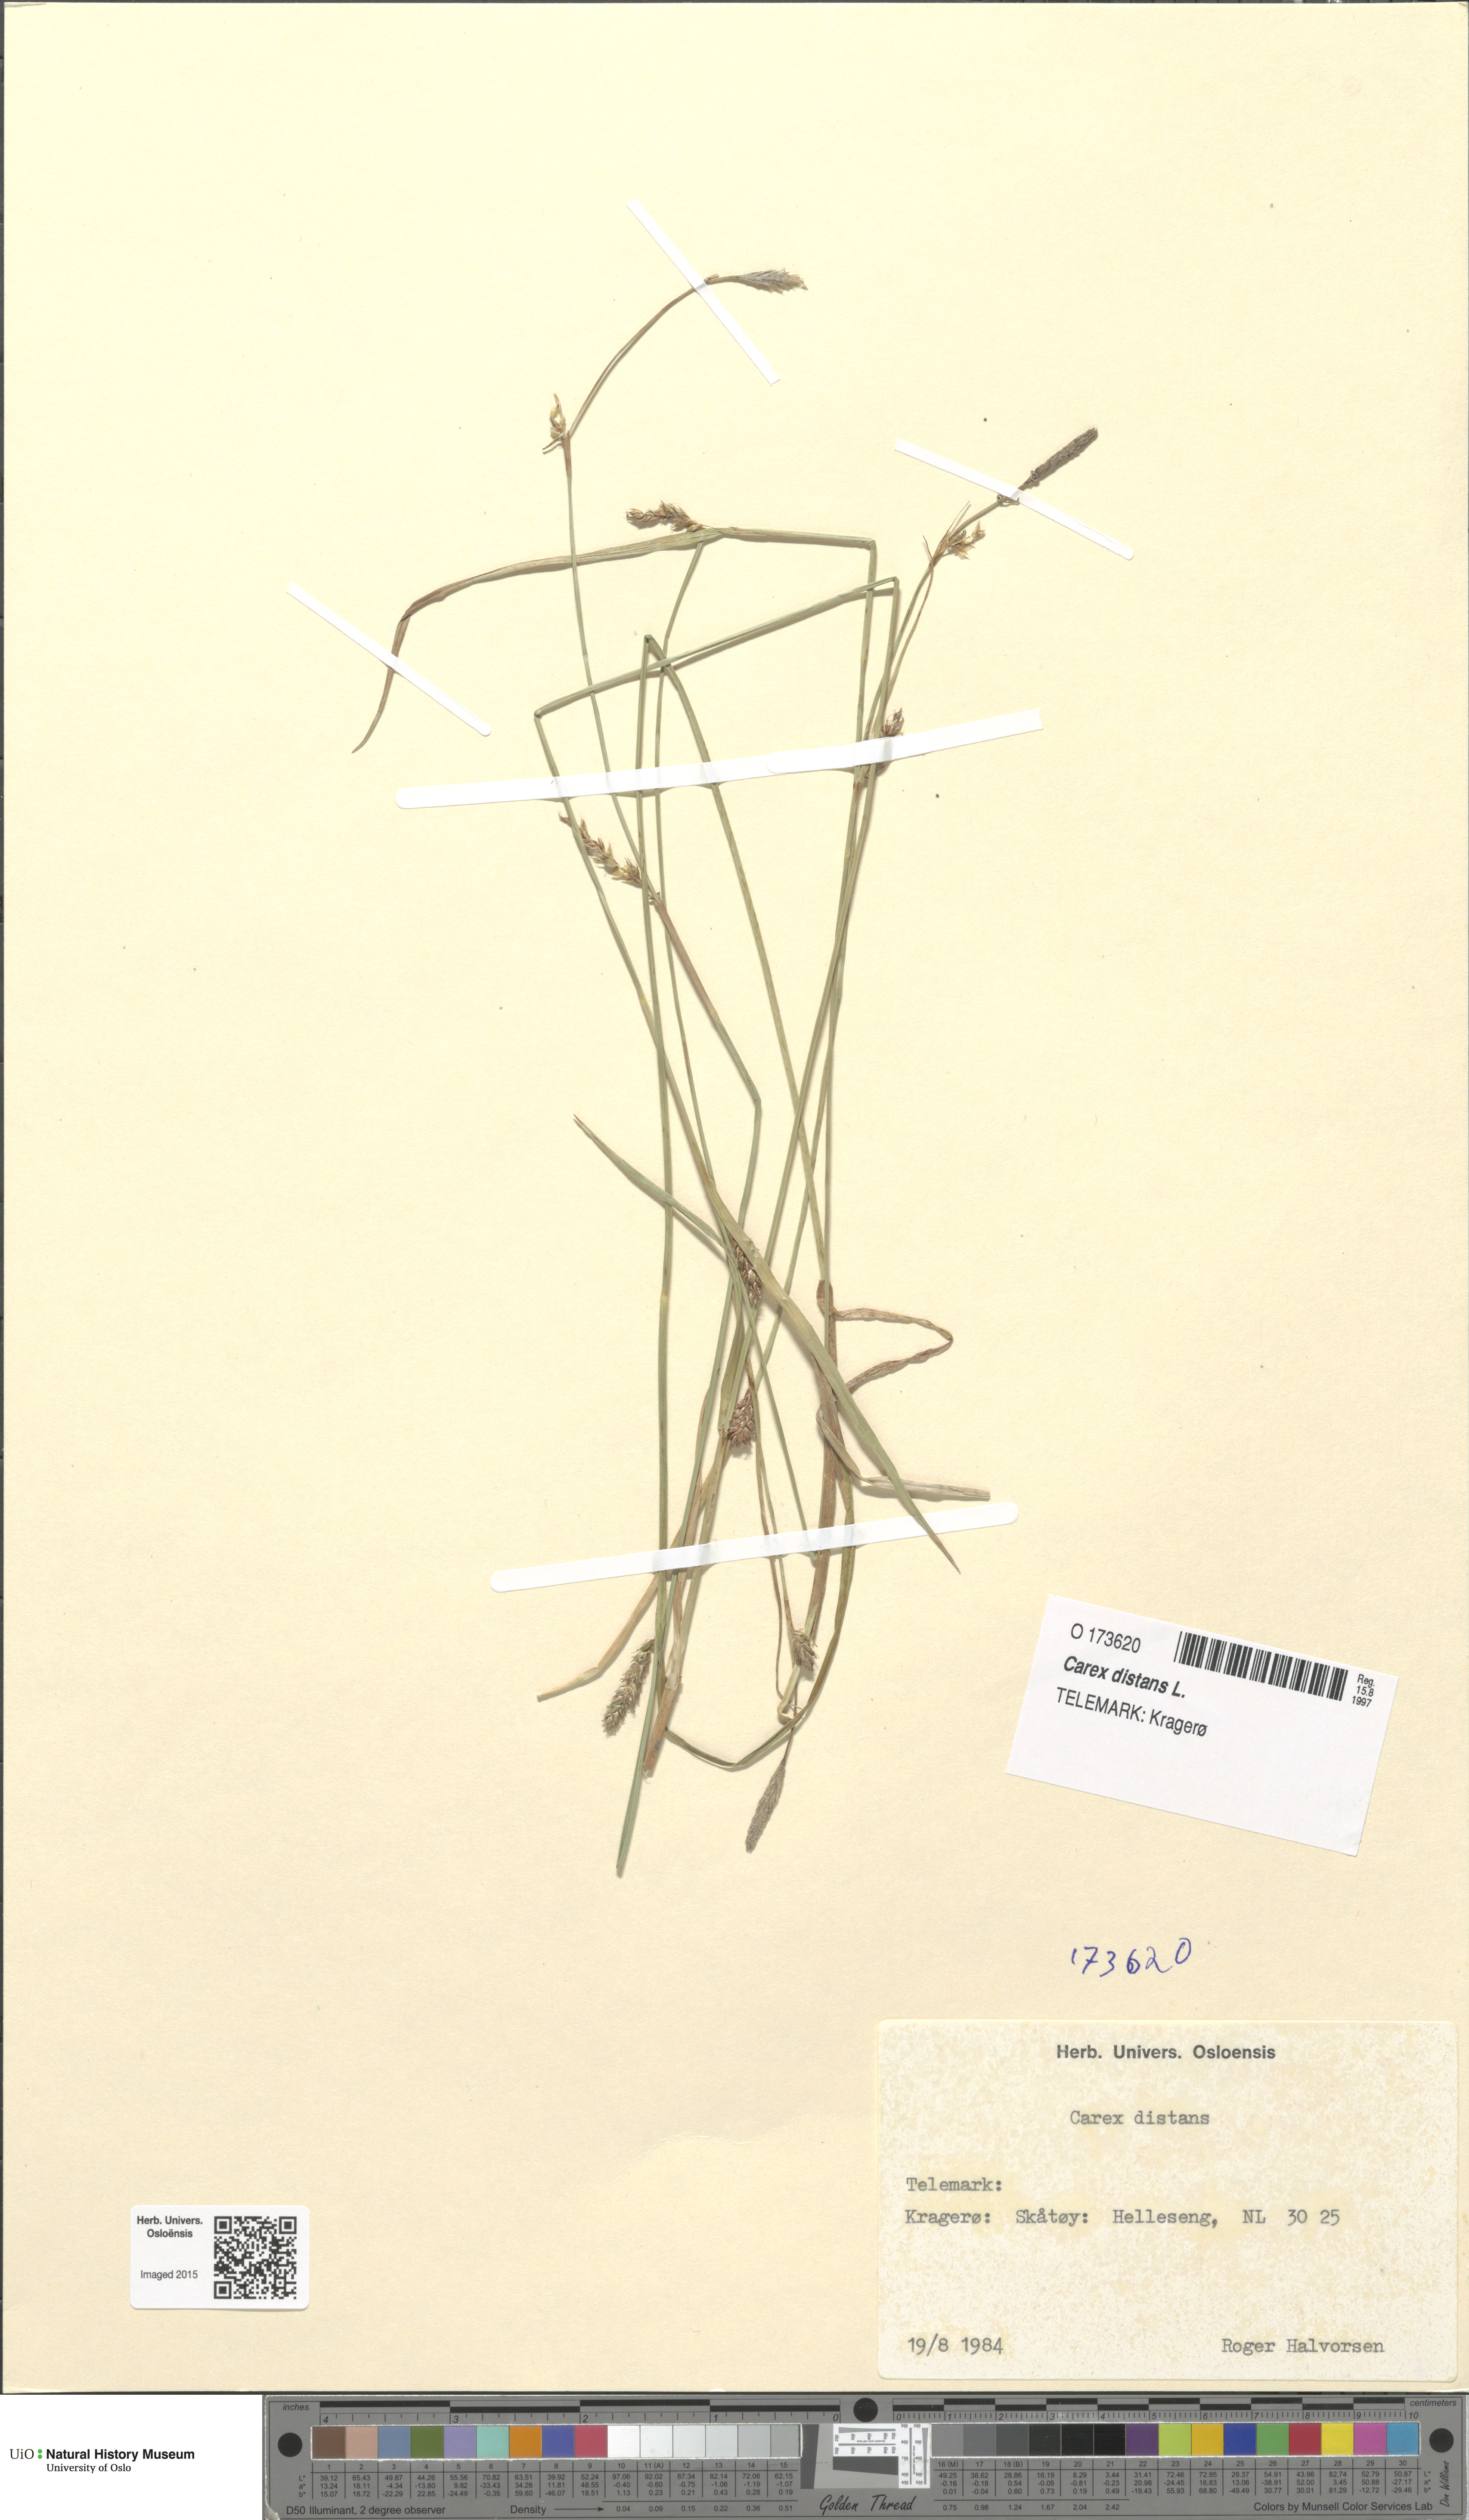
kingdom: Plantae
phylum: Tracheophyta
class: Liliopsida
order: Poales
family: Cyperaceae
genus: Carex
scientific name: Carex distans
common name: Distant sedge
